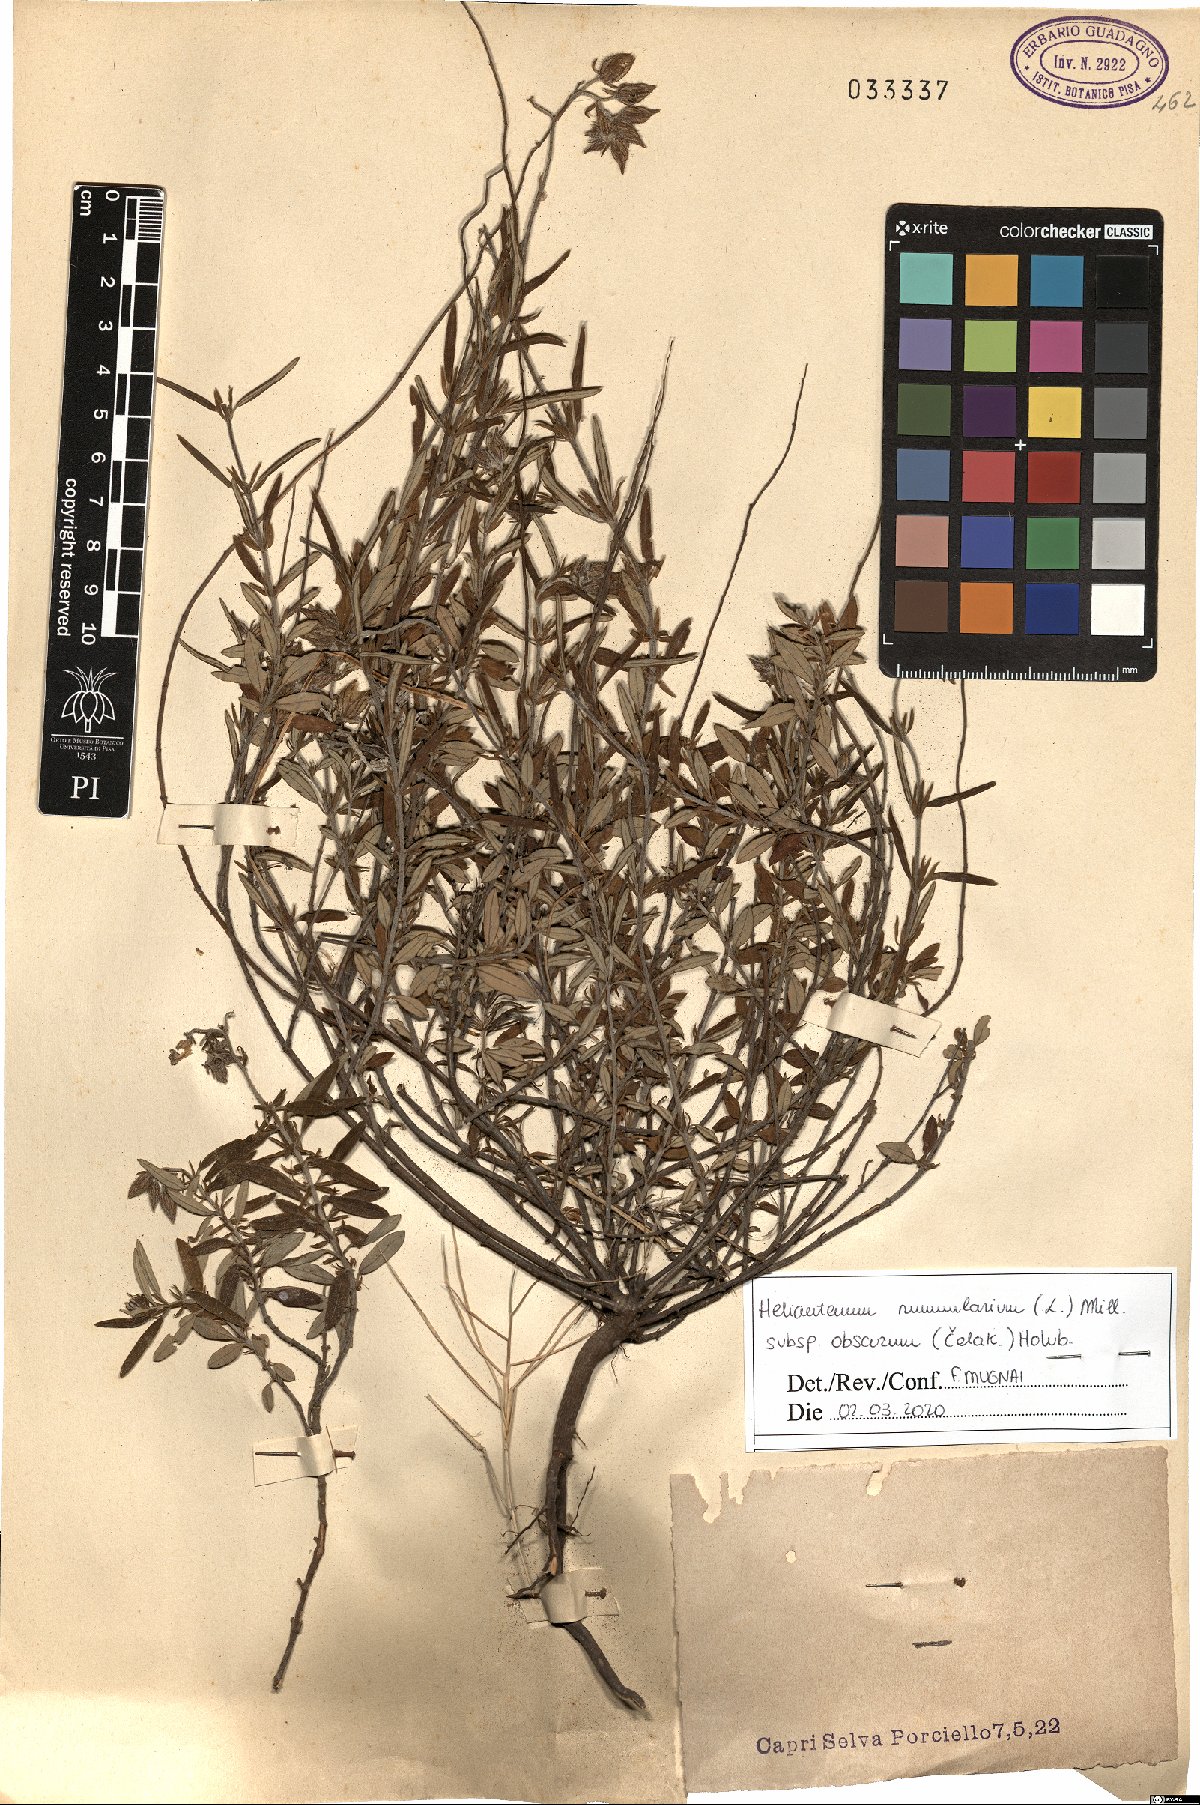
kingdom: Plantae
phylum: Tracheophyta
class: Magnoliopsida
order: Malvales
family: Cistaceae
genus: Helianthemum
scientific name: Helianthemum nummularium
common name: Common rock-rose
